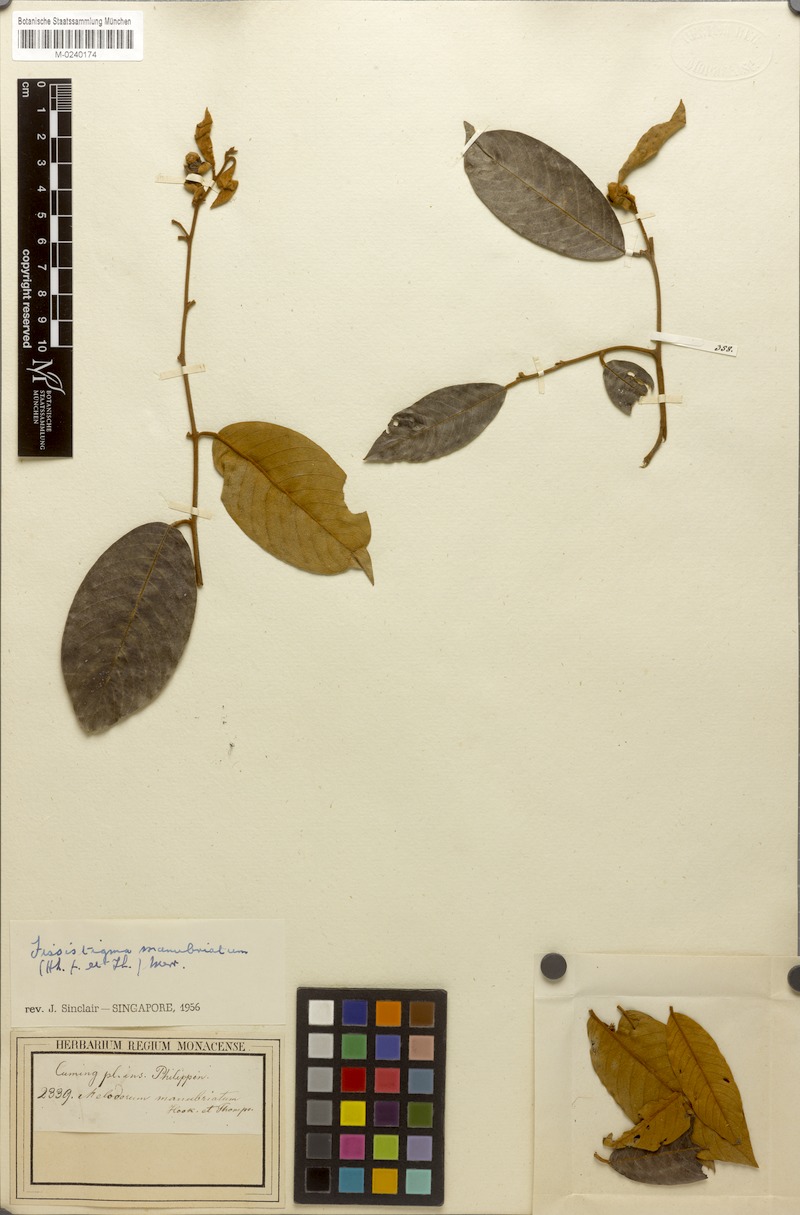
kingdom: Plantae
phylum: Tracheophyta
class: Magnoliopsida
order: Magnoliales
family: Annonaceae
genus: Fissistigma
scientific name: Fissistigma manubriatum
